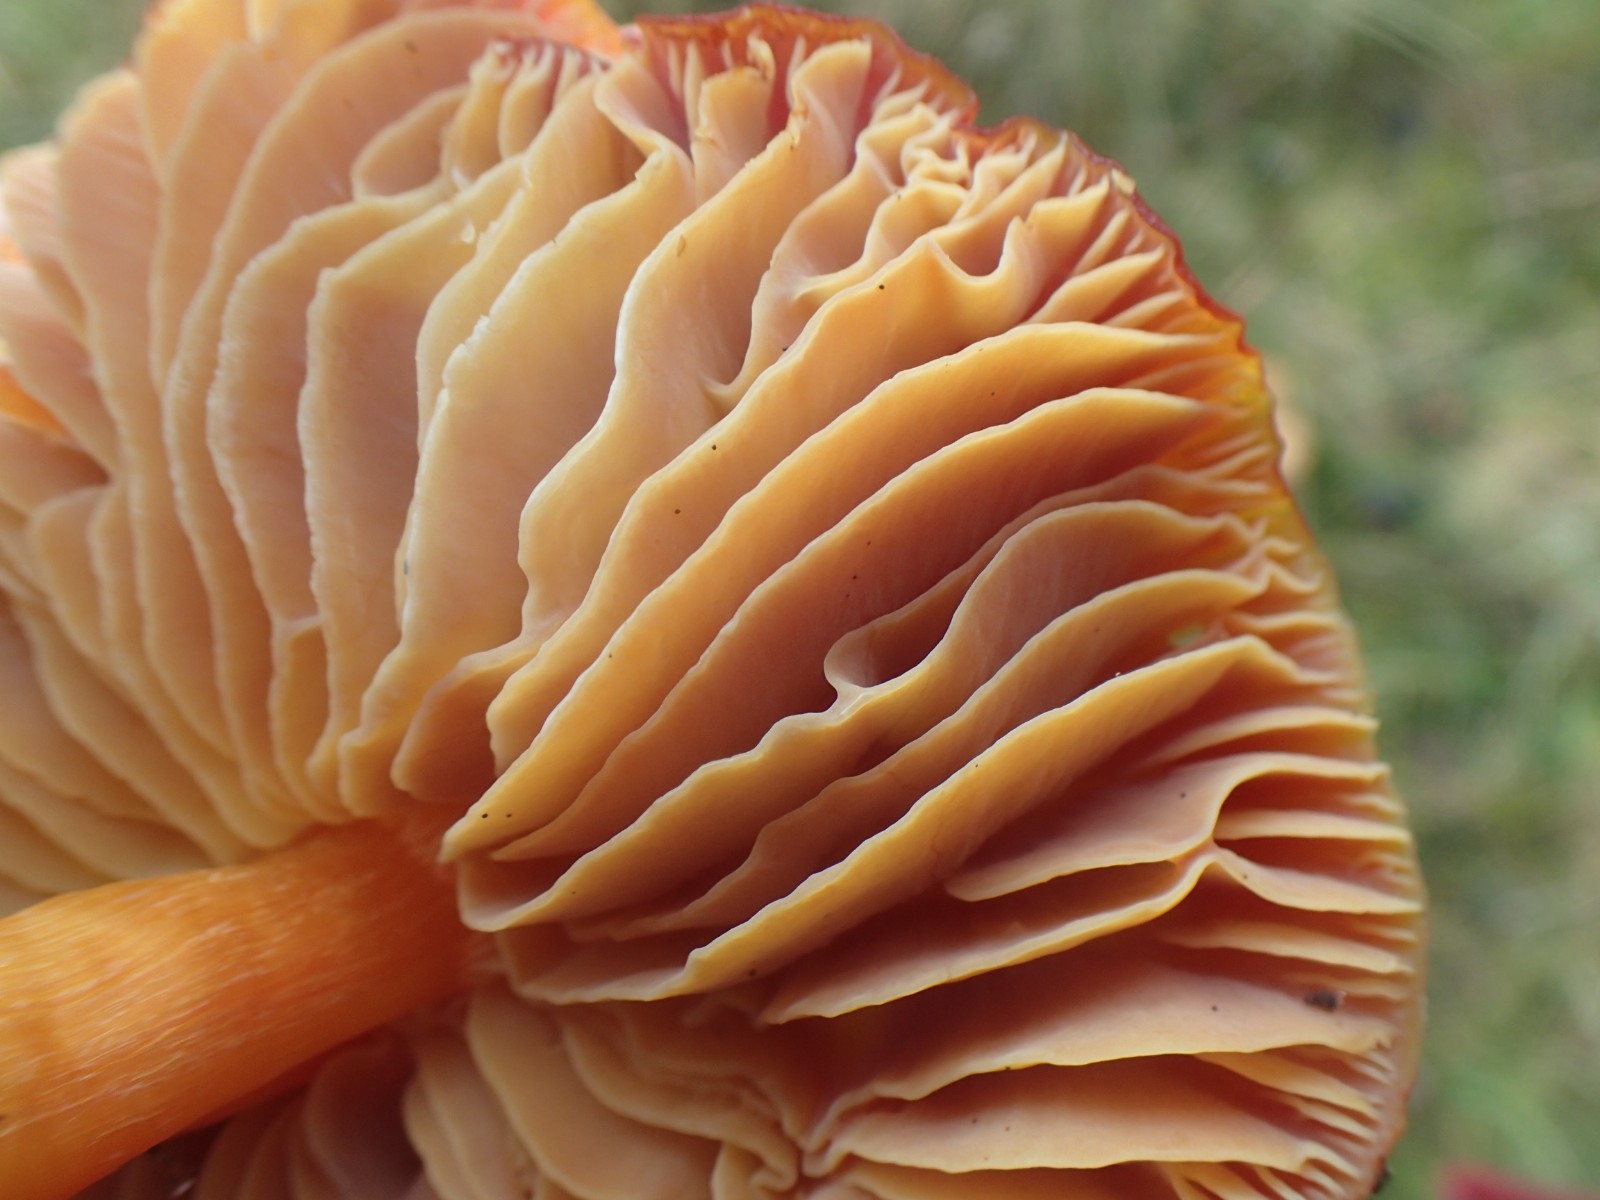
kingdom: Fungi
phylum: Basidiomycota
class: Agaricomycetes
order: Agaricales
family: Hygrophoraceae
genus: Hygrocybe
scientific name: Hygrocybe punicea
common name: skarlagen-vokshat
